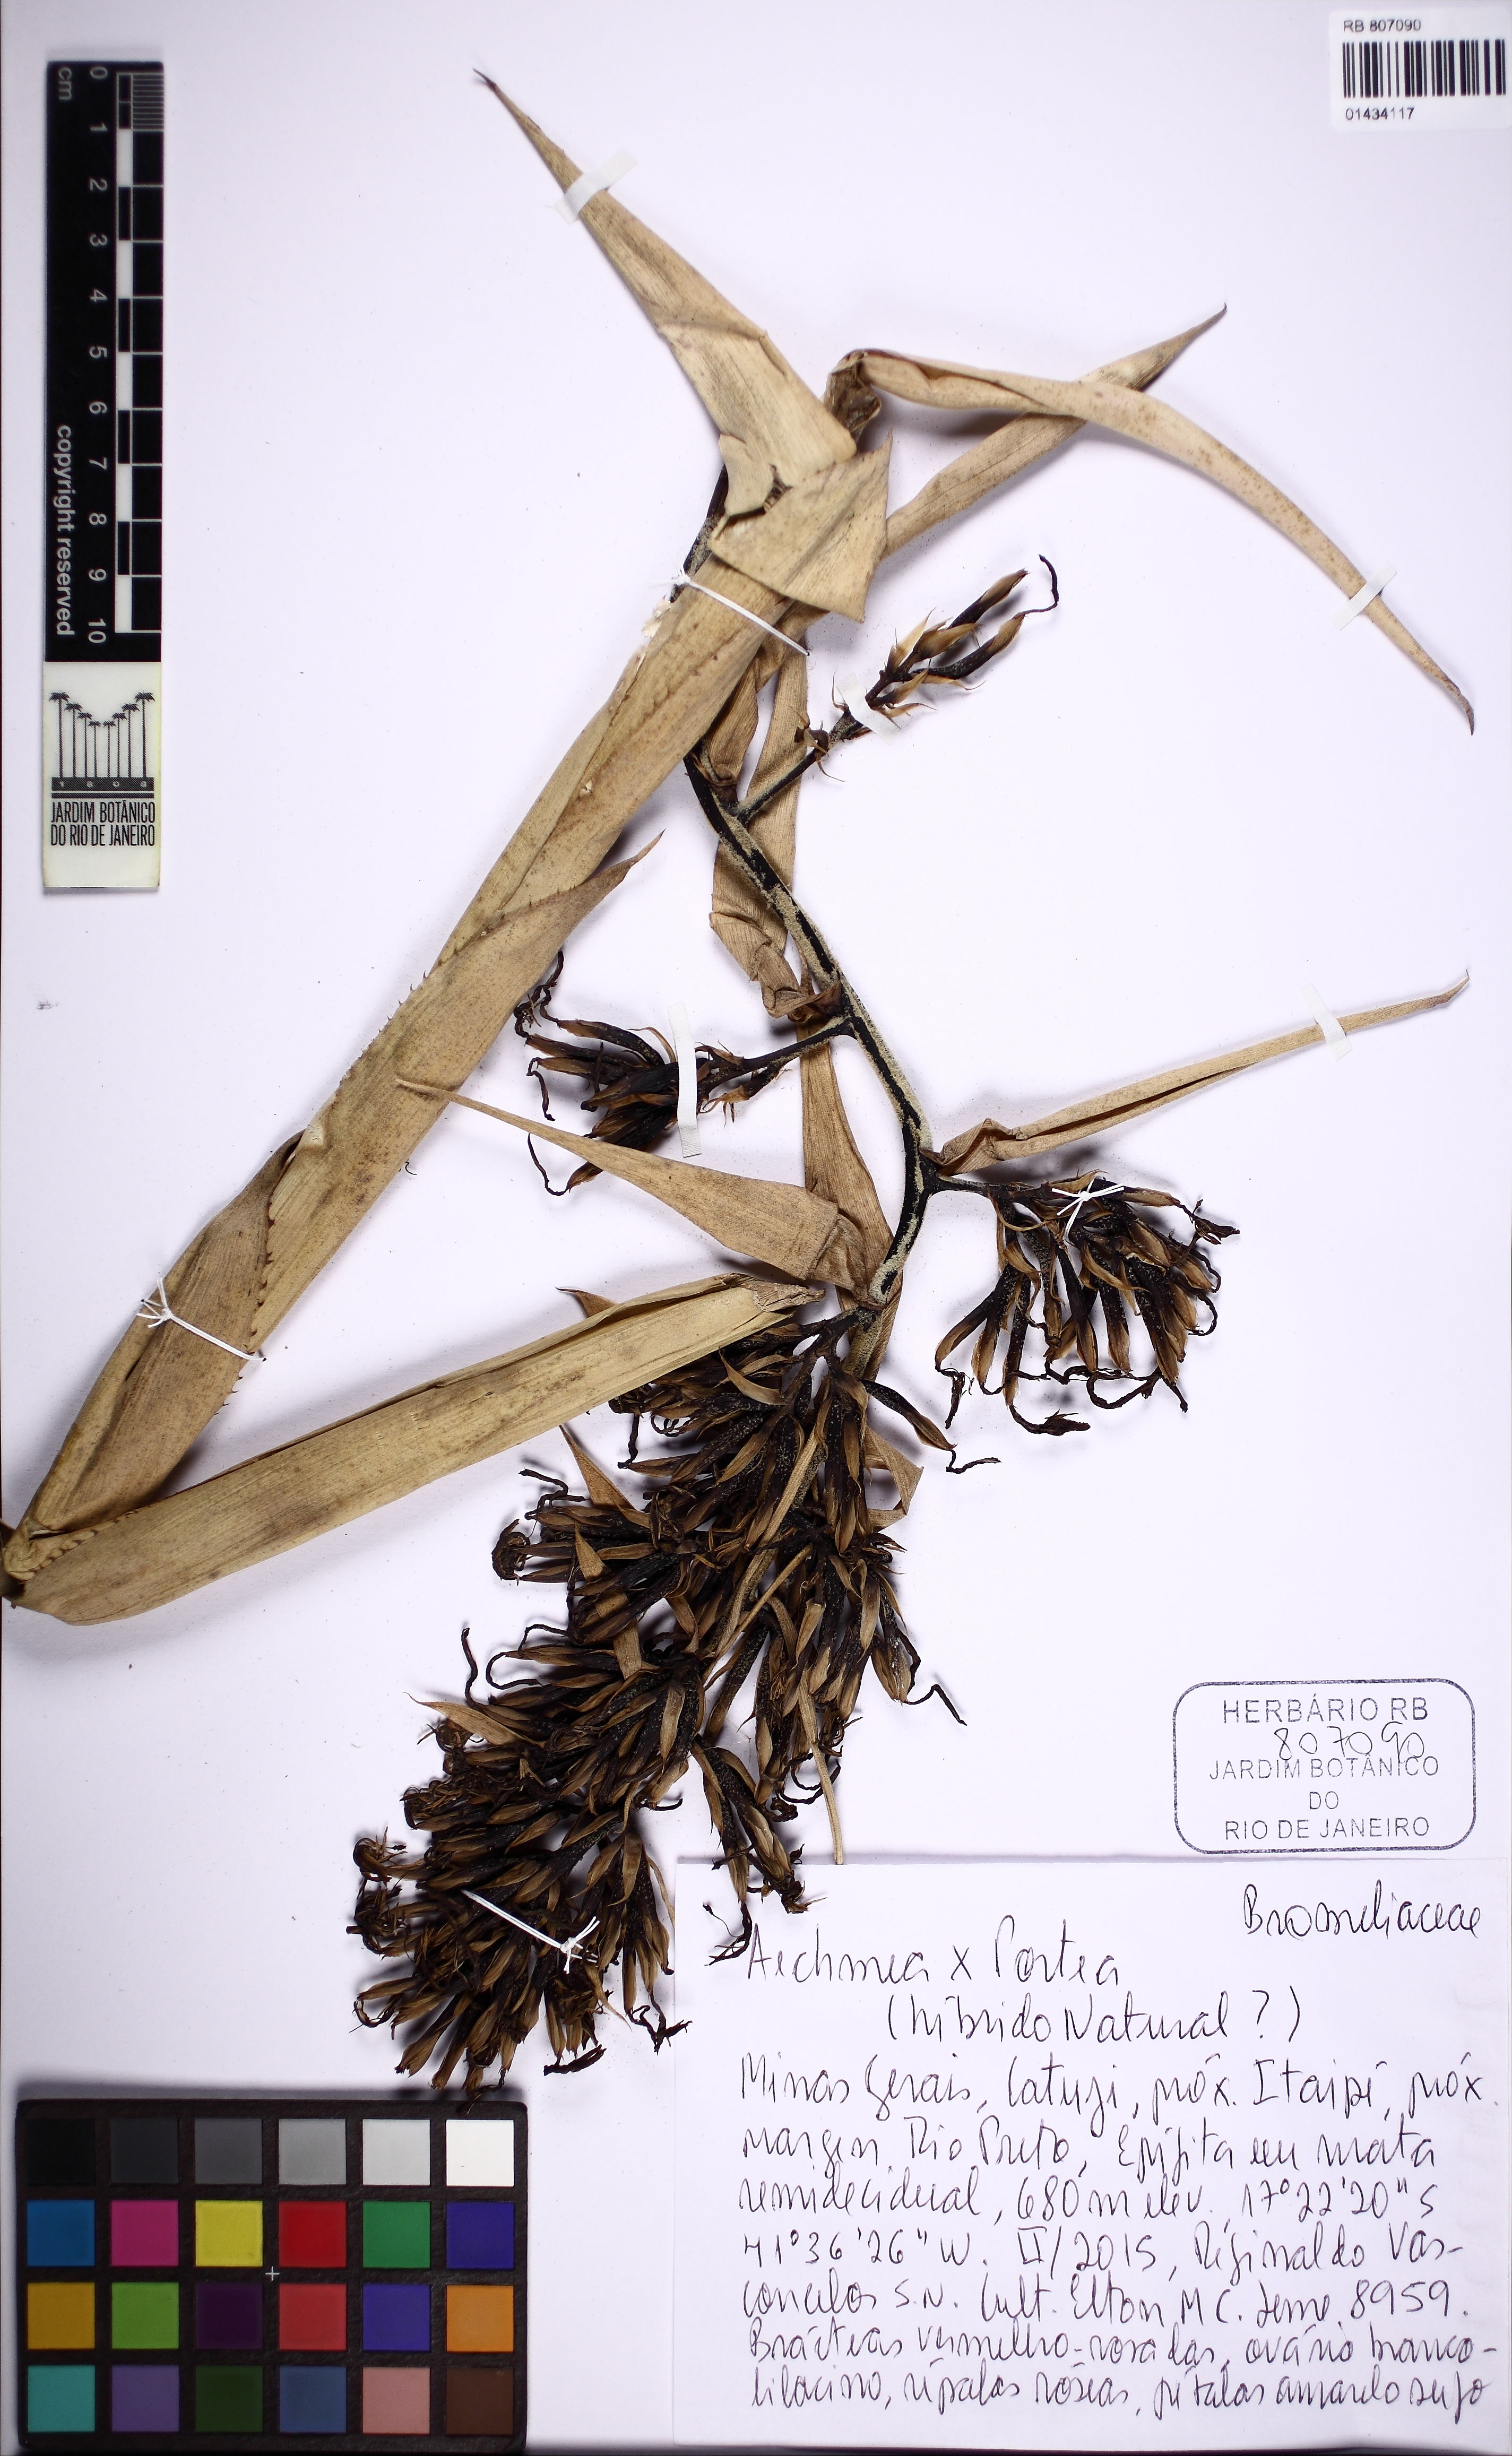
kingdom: Plantae
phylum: Tracheophyta
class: Liliopsida
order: Poales
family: Bromeliaceae
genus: Aechmea
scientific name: Aechmea
